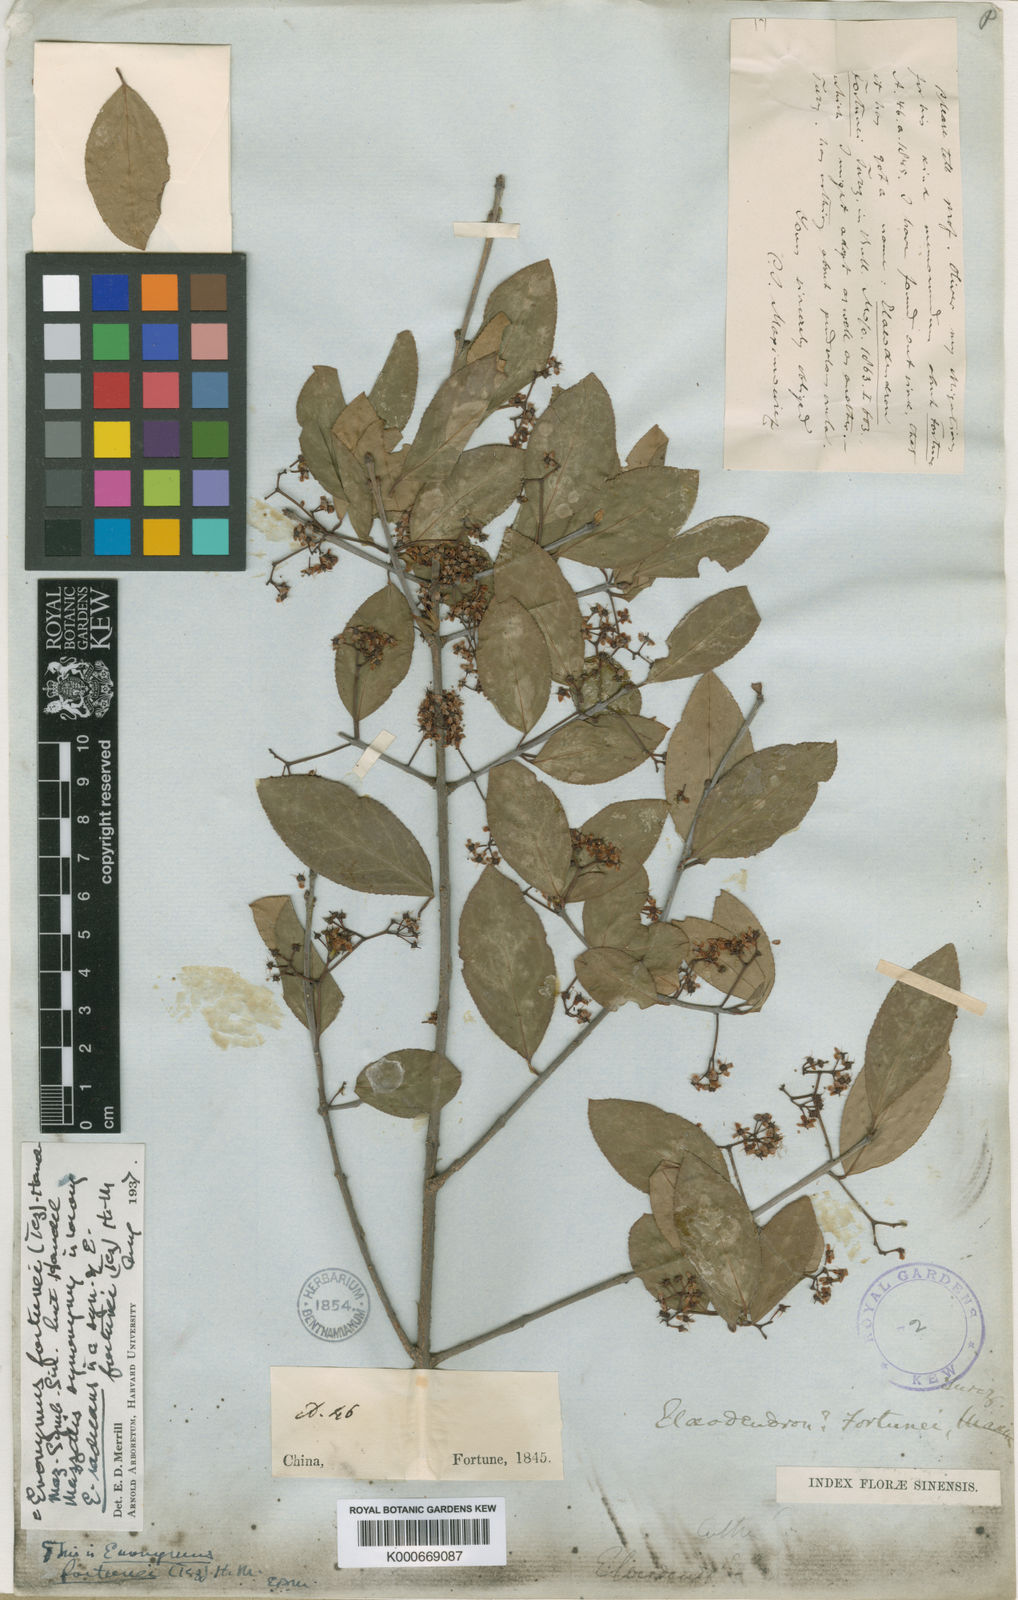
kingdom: Plantae
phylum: Tracheophyta
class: Magnoliopsida
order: Celastrales
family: Celastraceae
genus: Euonymus
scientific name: Euonymus fortunei
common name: Climbing euonymus
